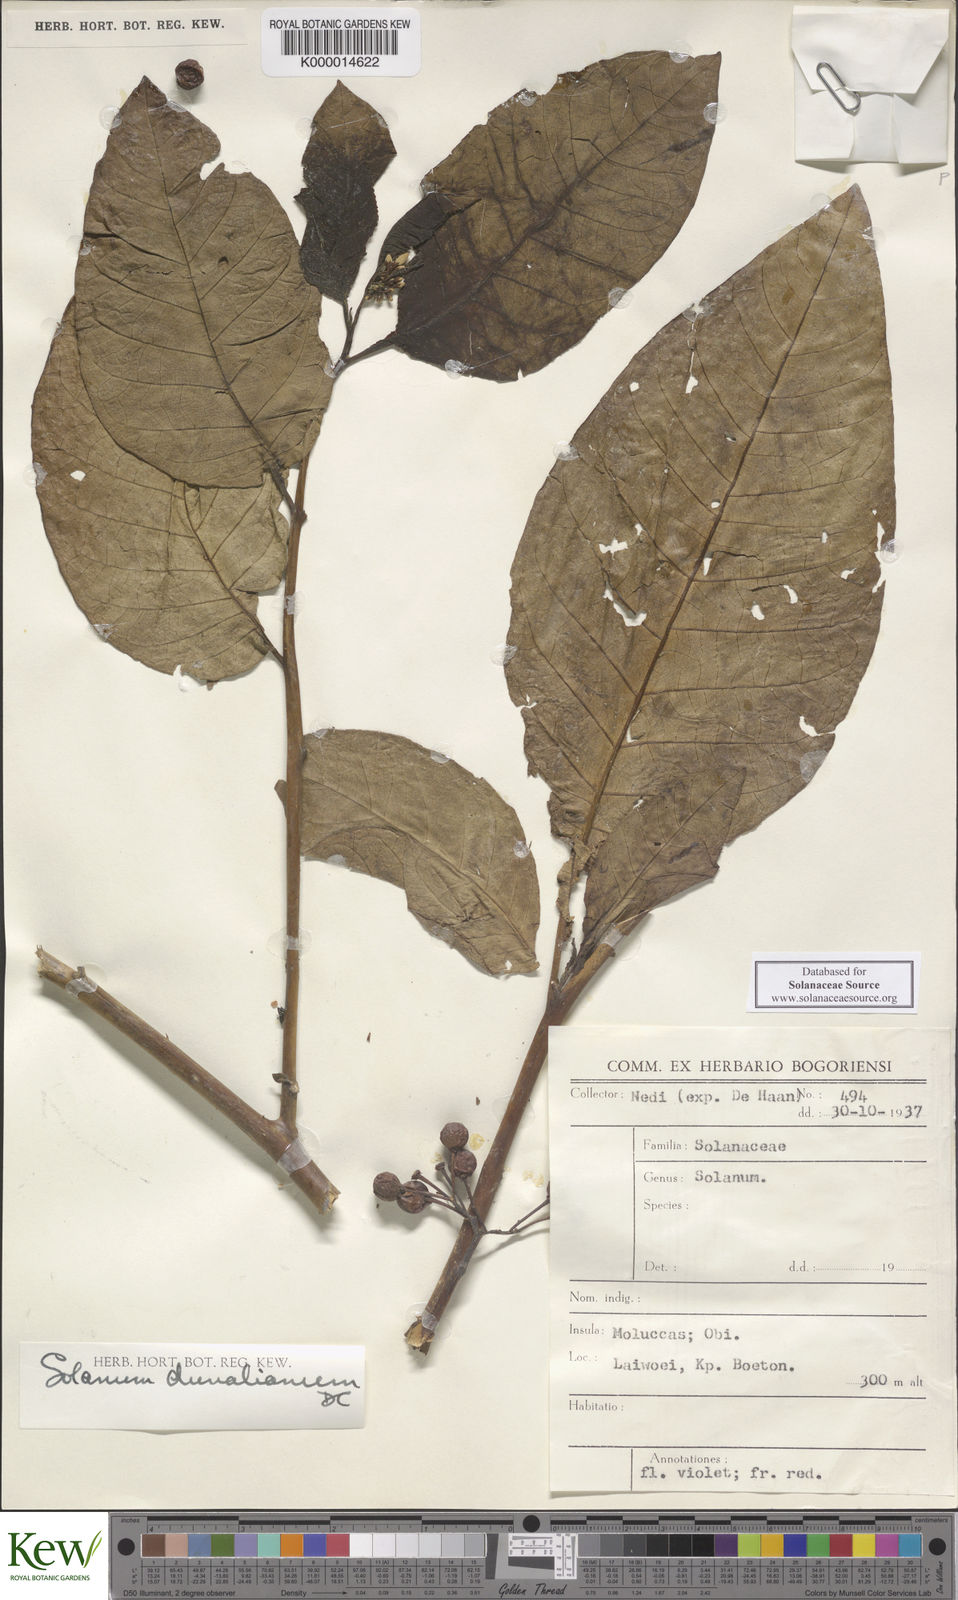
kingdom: Plantae
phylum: Tracheophyta
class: Magnoliopsida
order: Solanales
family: Solanaceae
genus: Solanum
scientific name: Solanum dunalianum
